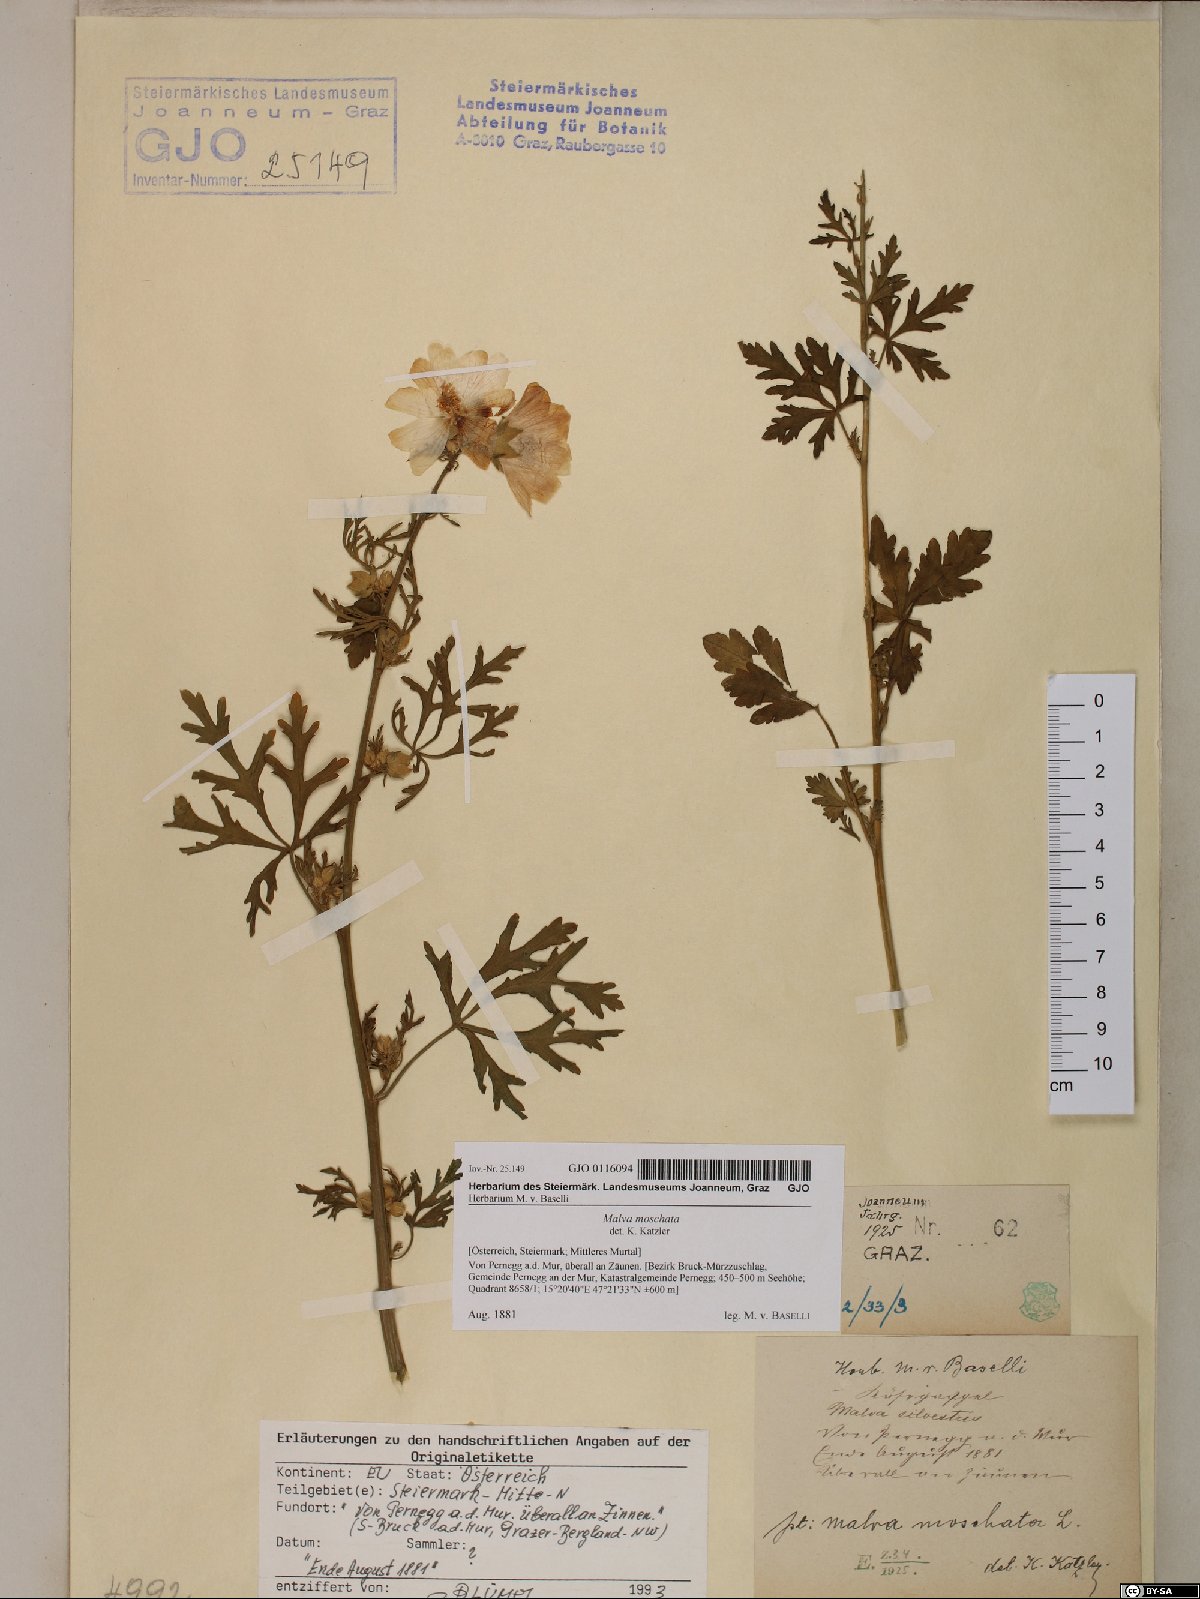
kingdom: Plantae
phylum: Tracheophyta
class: Magnoliopsida
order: Malvales
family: Malvaceae
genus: Malva
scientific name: Malva moschata
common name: Musk mallow
